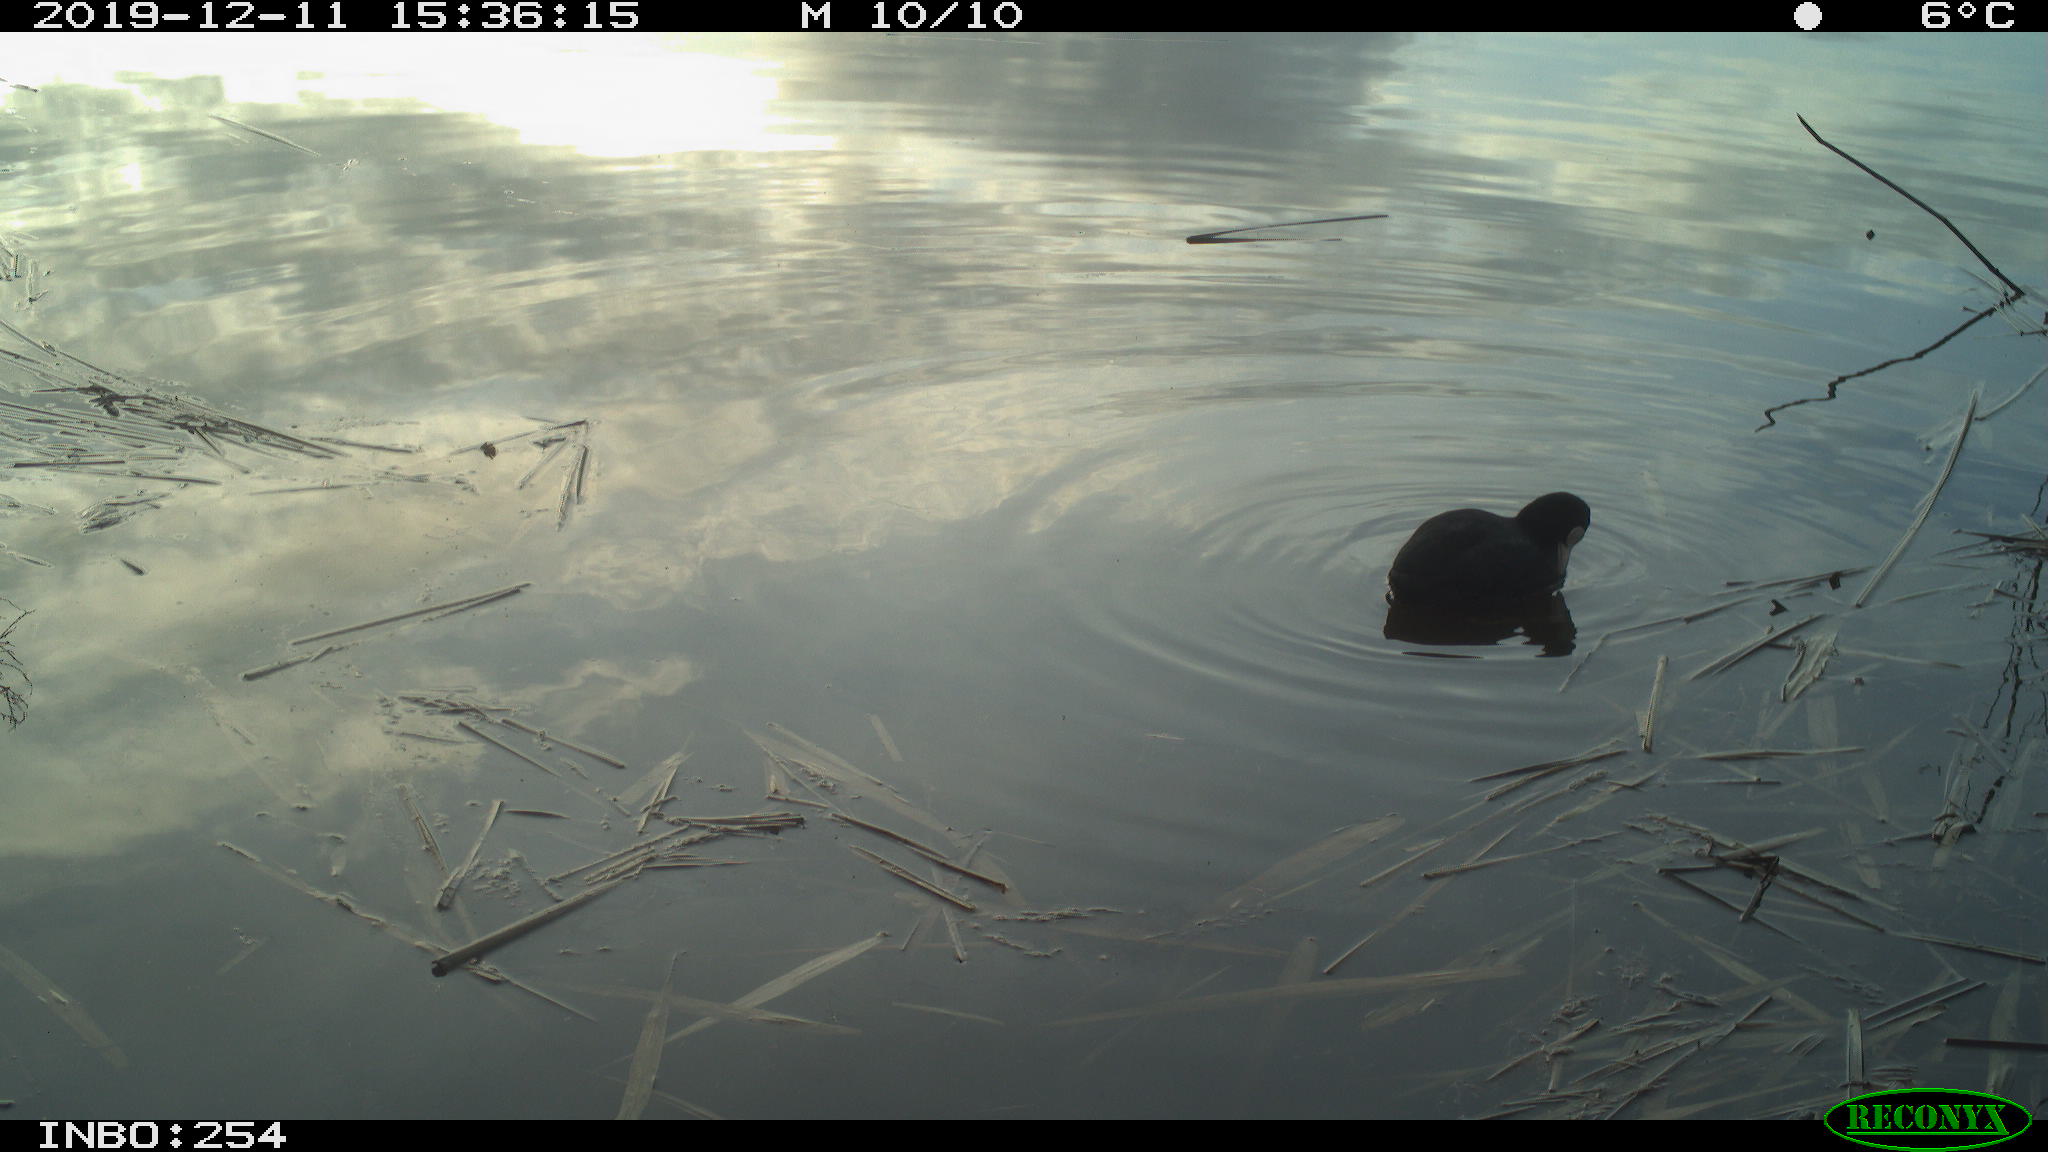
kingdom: Animalia
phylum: Chordata
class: Aves
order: Gruiformes
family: Rallidae
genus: Fulica
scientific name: Fulica atra
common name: Eurasian coot
